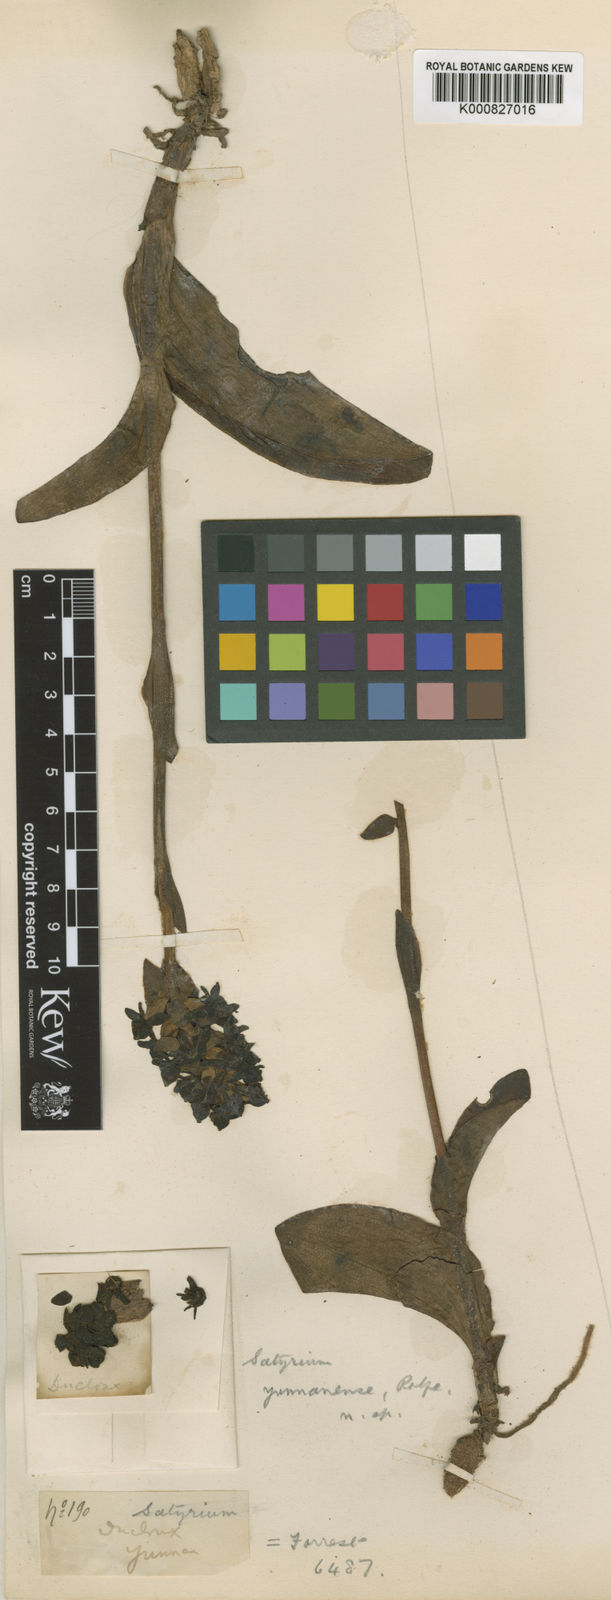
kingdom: Plantae
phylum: Tracheophyta
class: Liliopsida
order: Asparagales
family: Orchidaceae
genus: Satyrium
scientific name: Satyrium yunnanense
